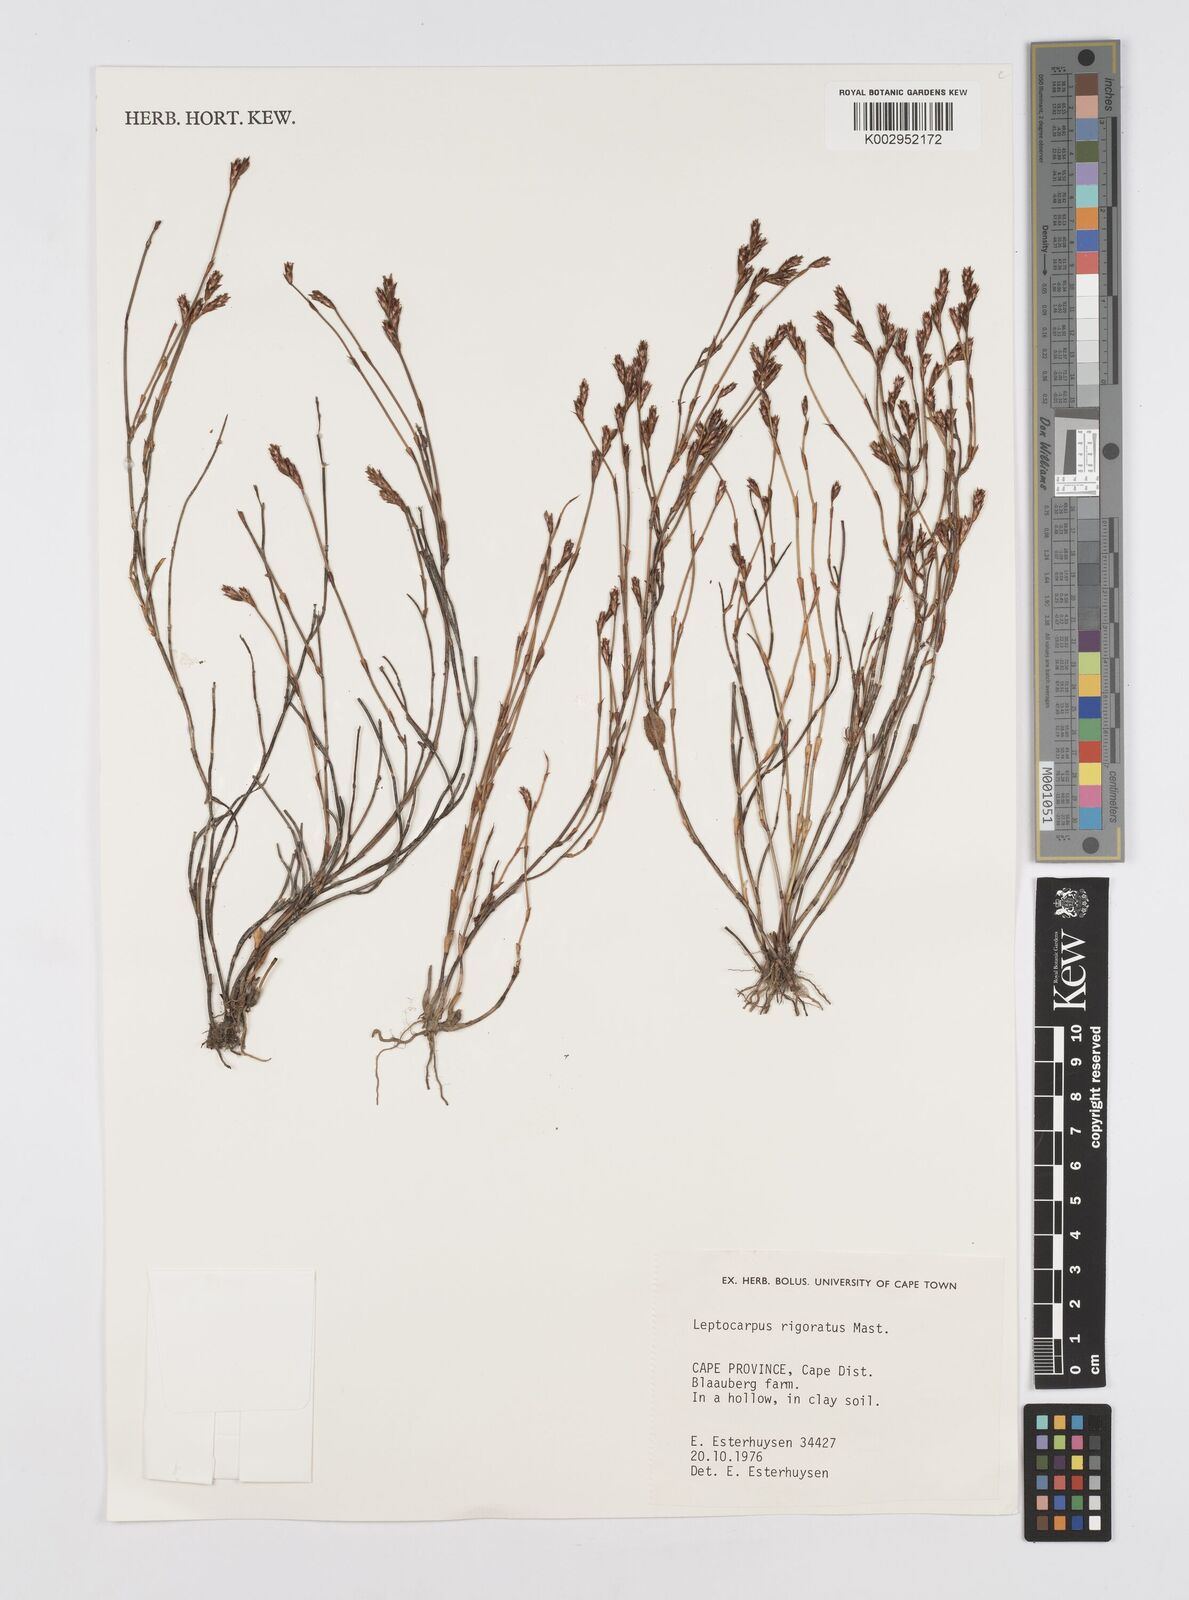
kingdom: Plantae
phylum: Tracheophyta
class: Liliopsida
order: Poales
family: Restionaceae
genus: Restio
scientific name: Restio rigoratus
